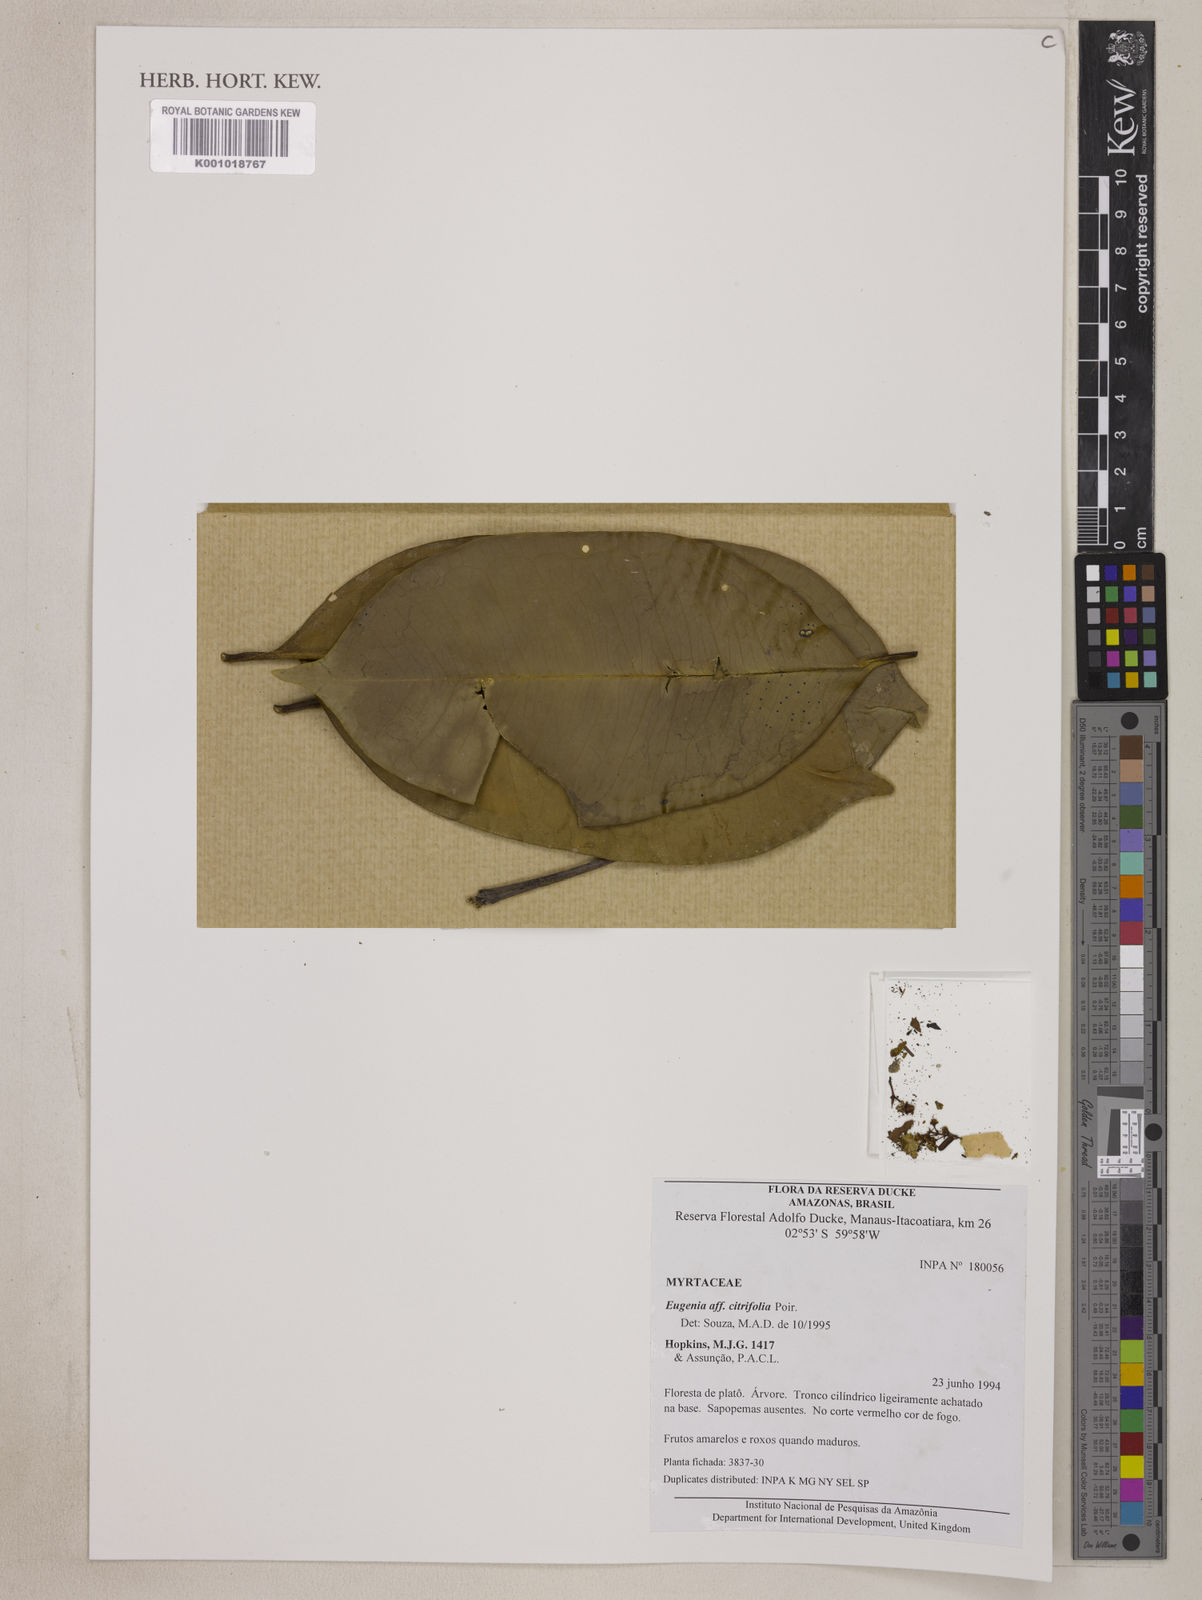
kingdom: Plantae
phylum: Tracheophyta
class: Magnoliopsida
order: Myrtales
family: Myrtaceae
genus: Eugenia
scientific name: Eugenia citrifolia
